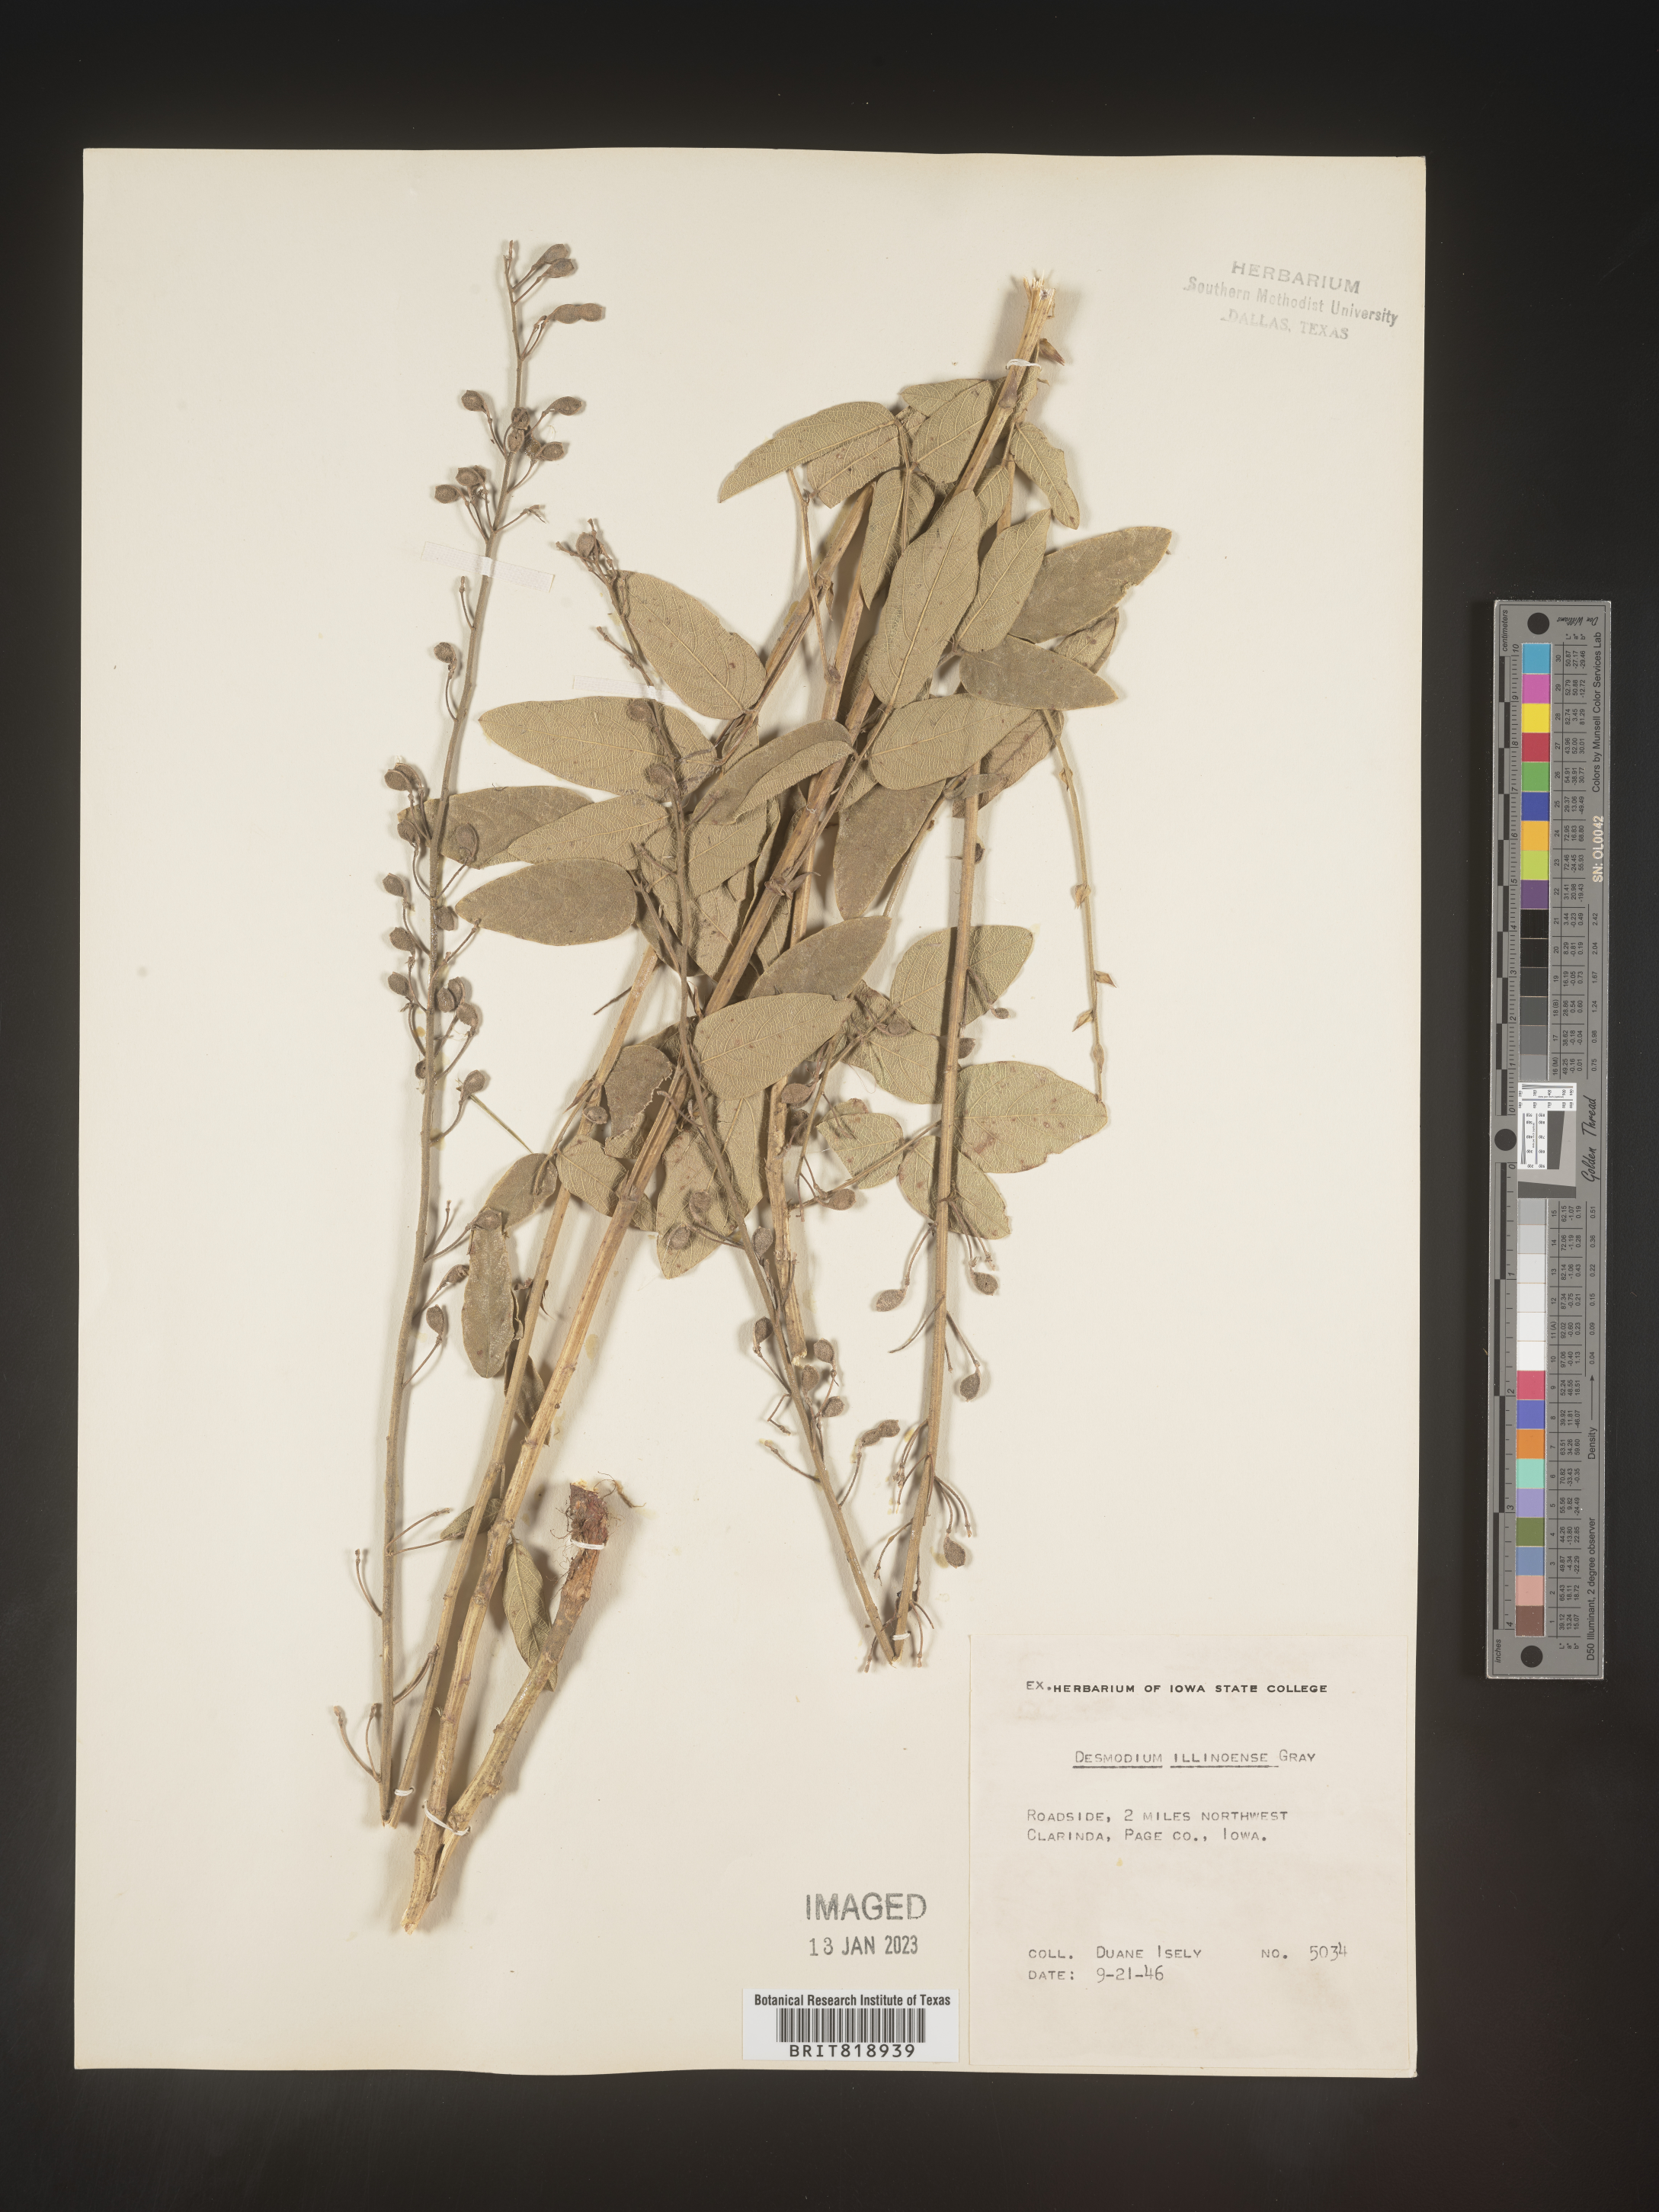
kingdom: Plantae
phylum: Tracheophyta
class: Magnoliopsida
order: Fabales
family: Fabaceae
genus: Desmodium
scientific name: Desmodium illinoense
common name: Illinois tick-clover
